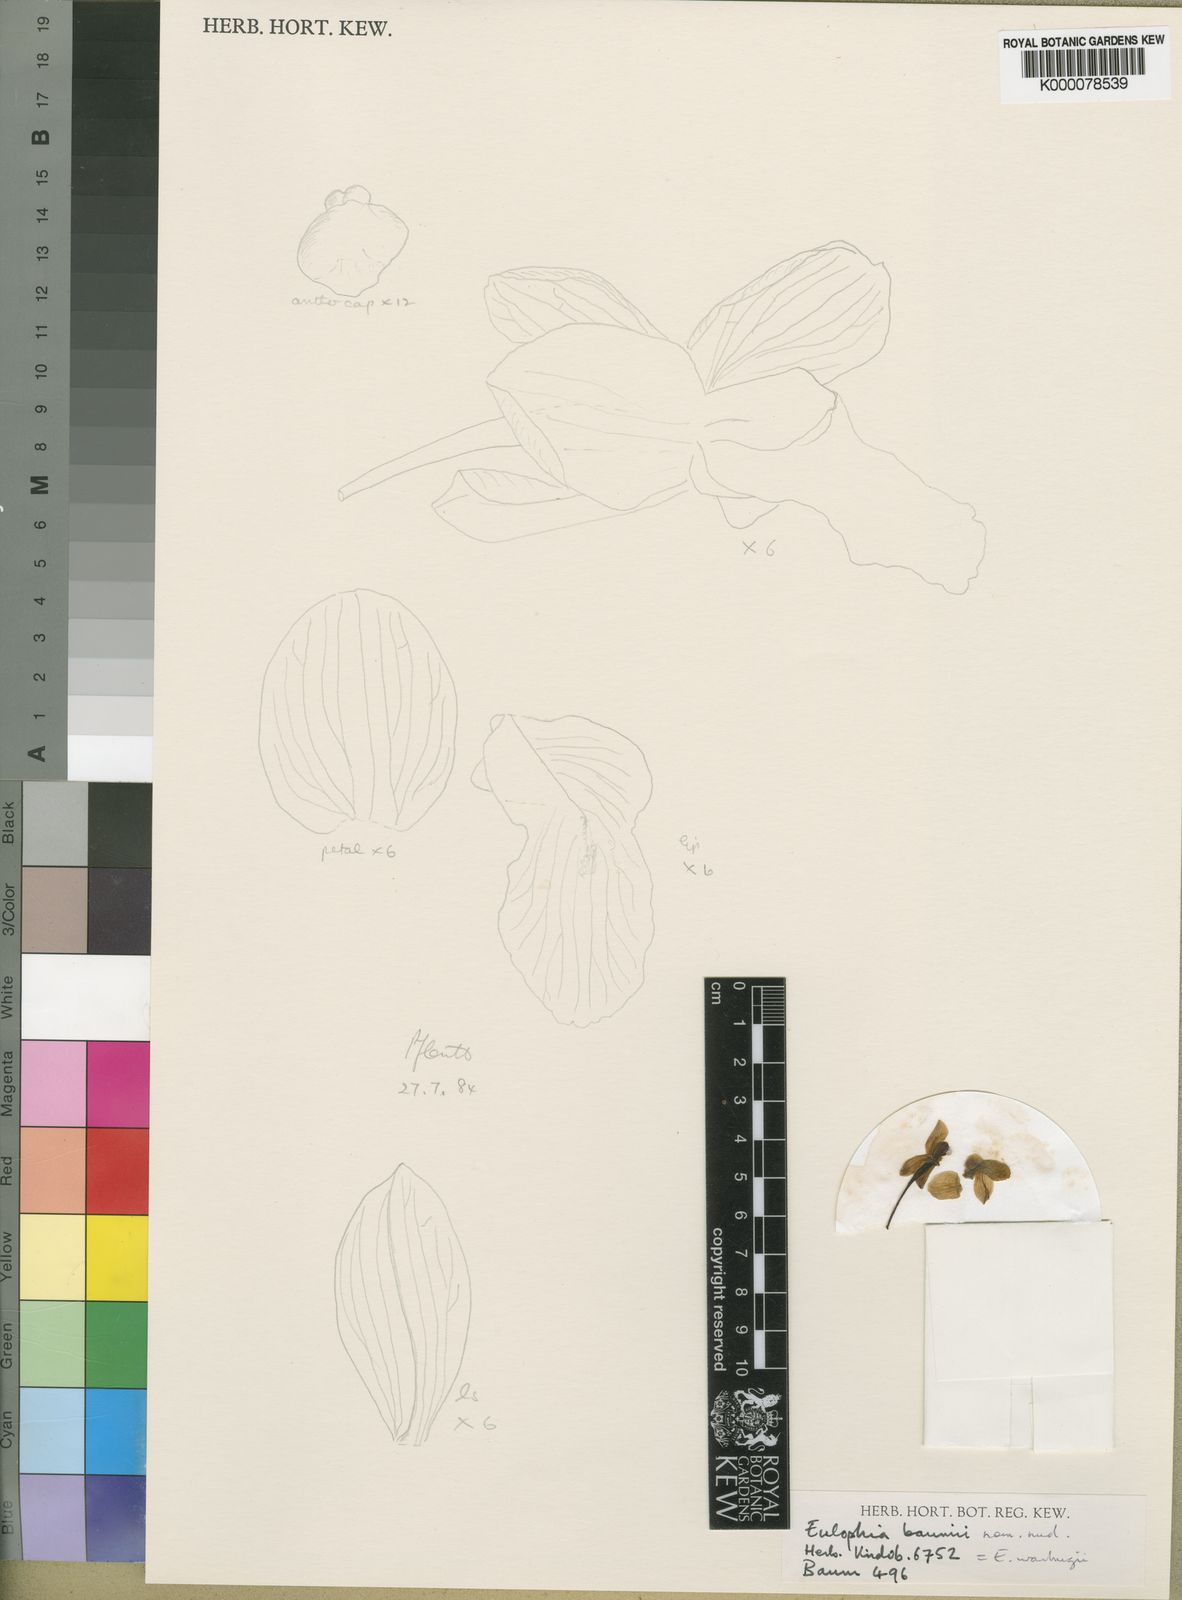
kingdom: Plantae
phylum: Tracheophyta
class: Liliopsida
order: Asparagales
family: Orchidaceae
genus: Eulophia
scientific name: Eulophia malangana
